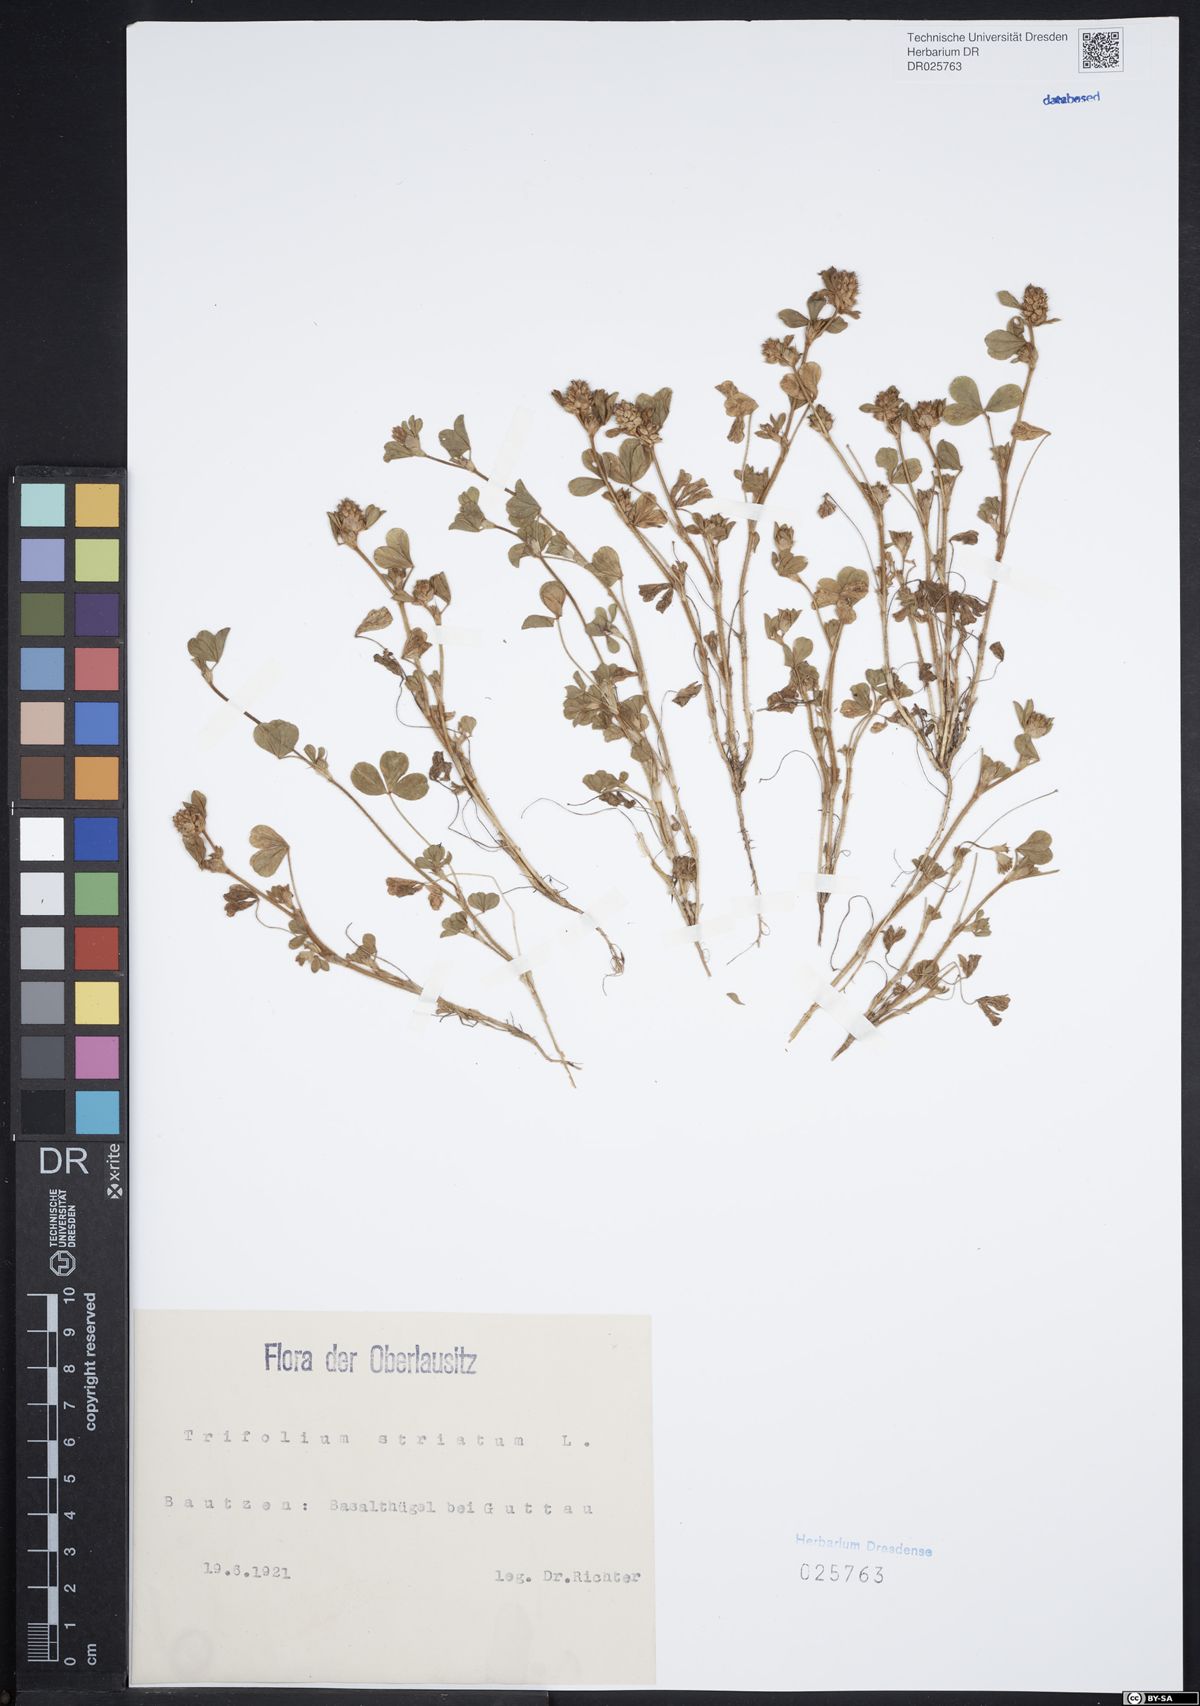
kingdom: Plantae
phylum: Tracheophyta
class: Magnoliopsida
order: Fabales
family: Fabaceae
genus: Trifolium
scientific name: Trifolium striatum
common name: Knotted clover
